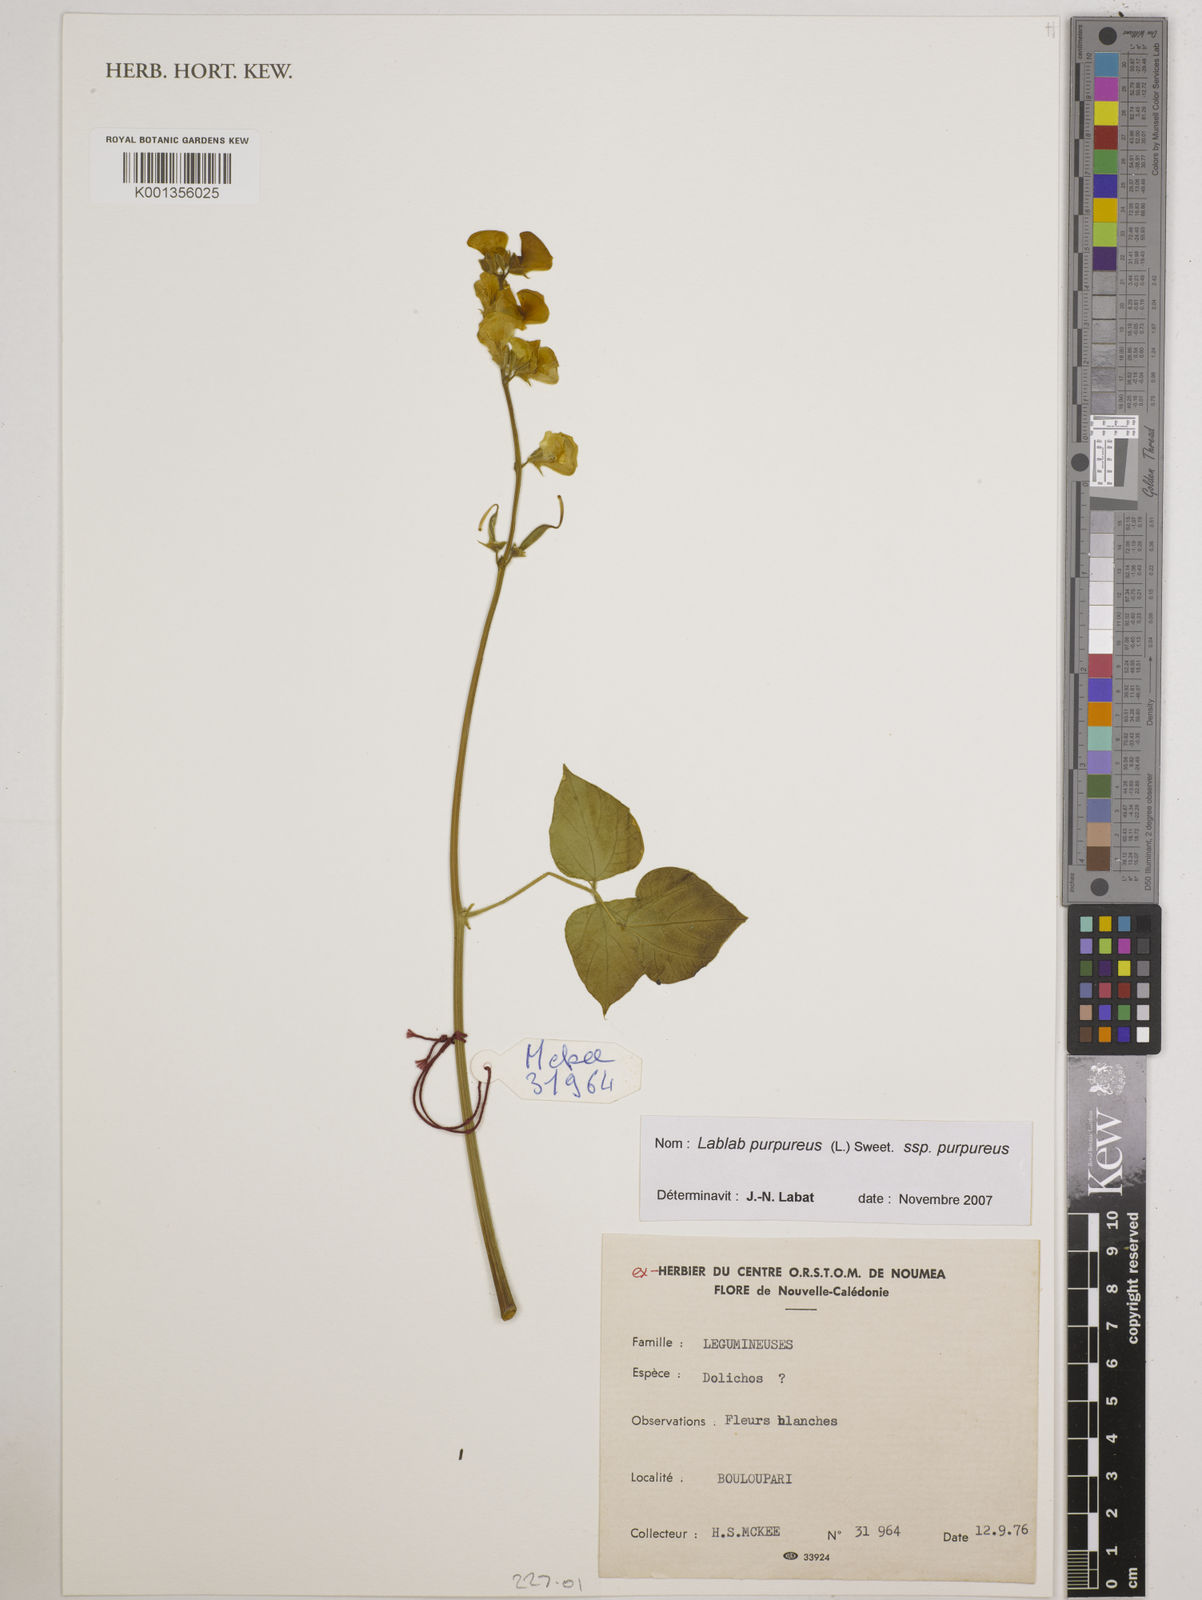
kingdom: Plantae
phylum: Tracheophyta
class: Magnoliopsida
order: Fabales
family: Fabaceae
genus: Lablab
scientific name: Lablab purpureus
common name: Lablab-bean
